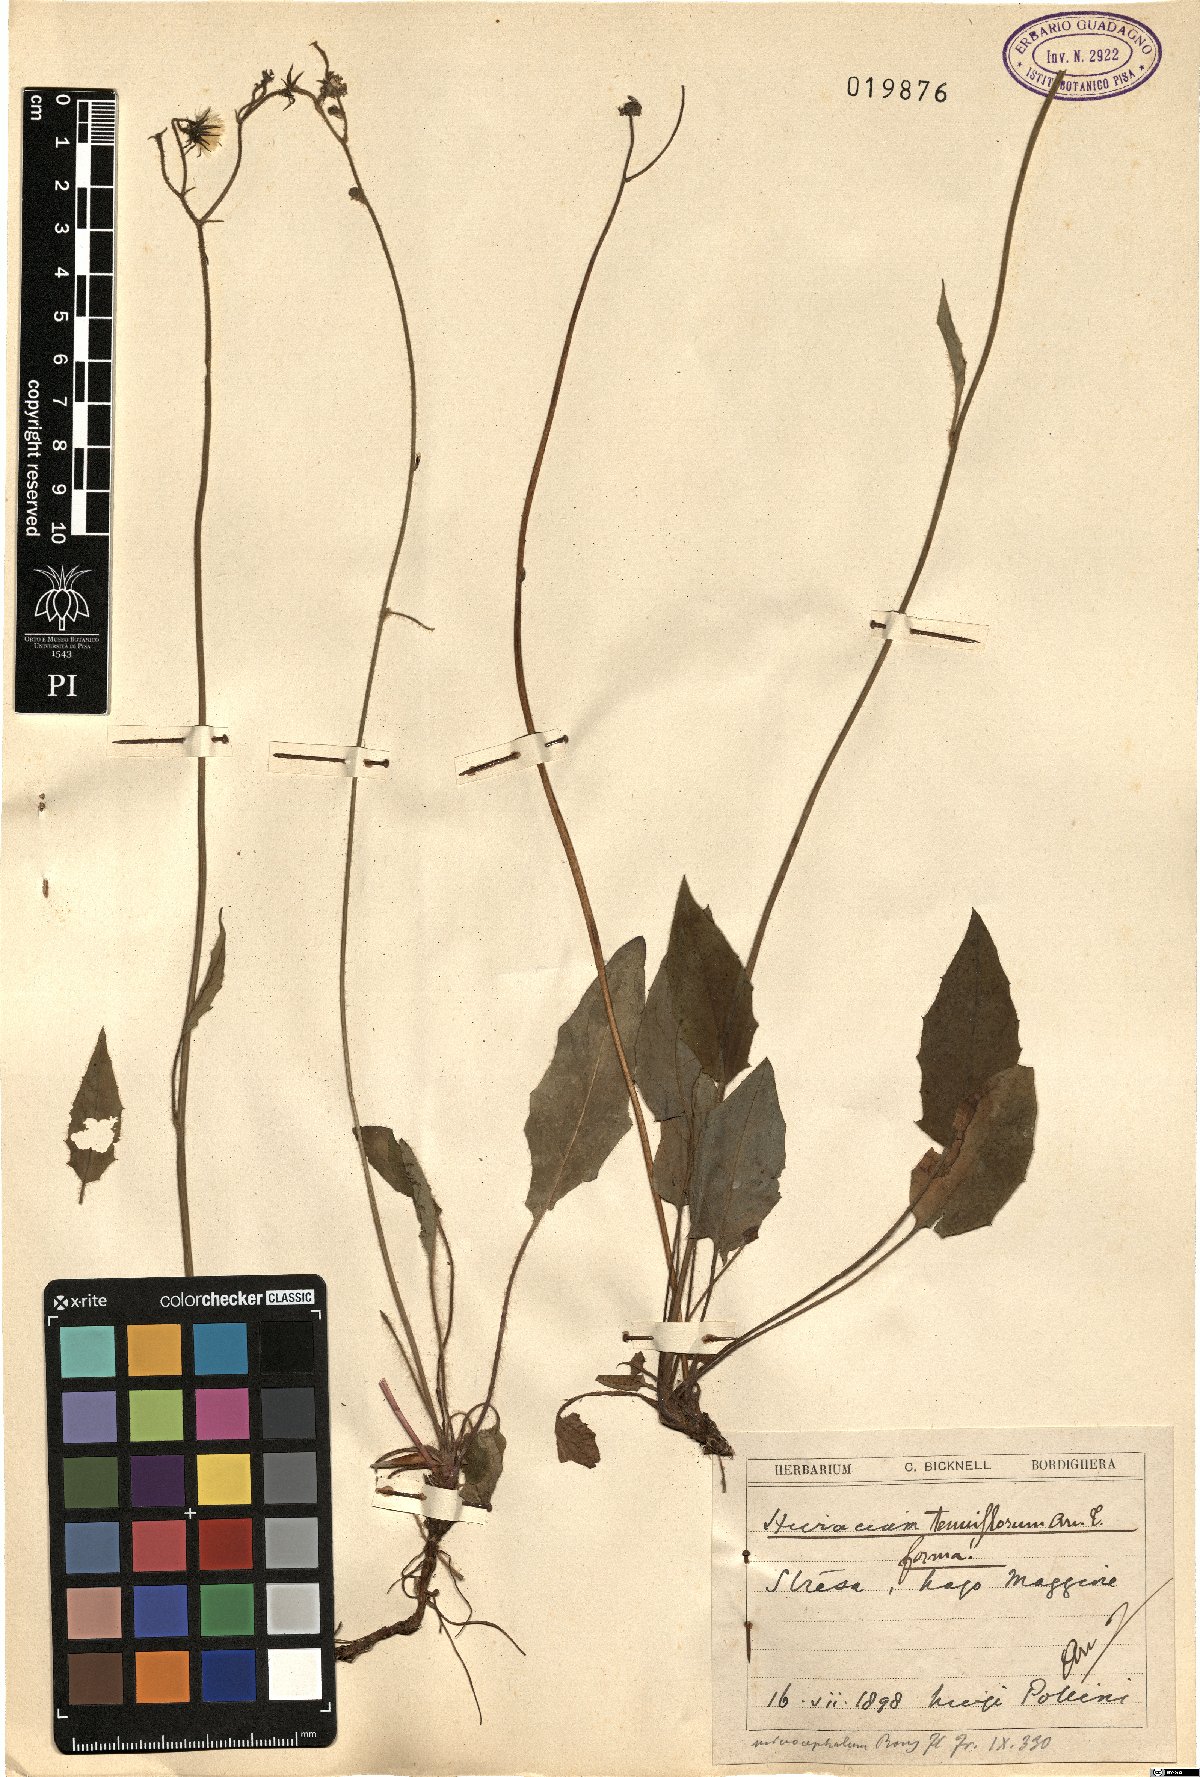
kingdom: Plantae
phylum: Tracheophyta
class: Magnoliopsida
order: Asterales
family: Asteraceae
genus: Hieracium
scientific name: Hieracium tenuiflorum
